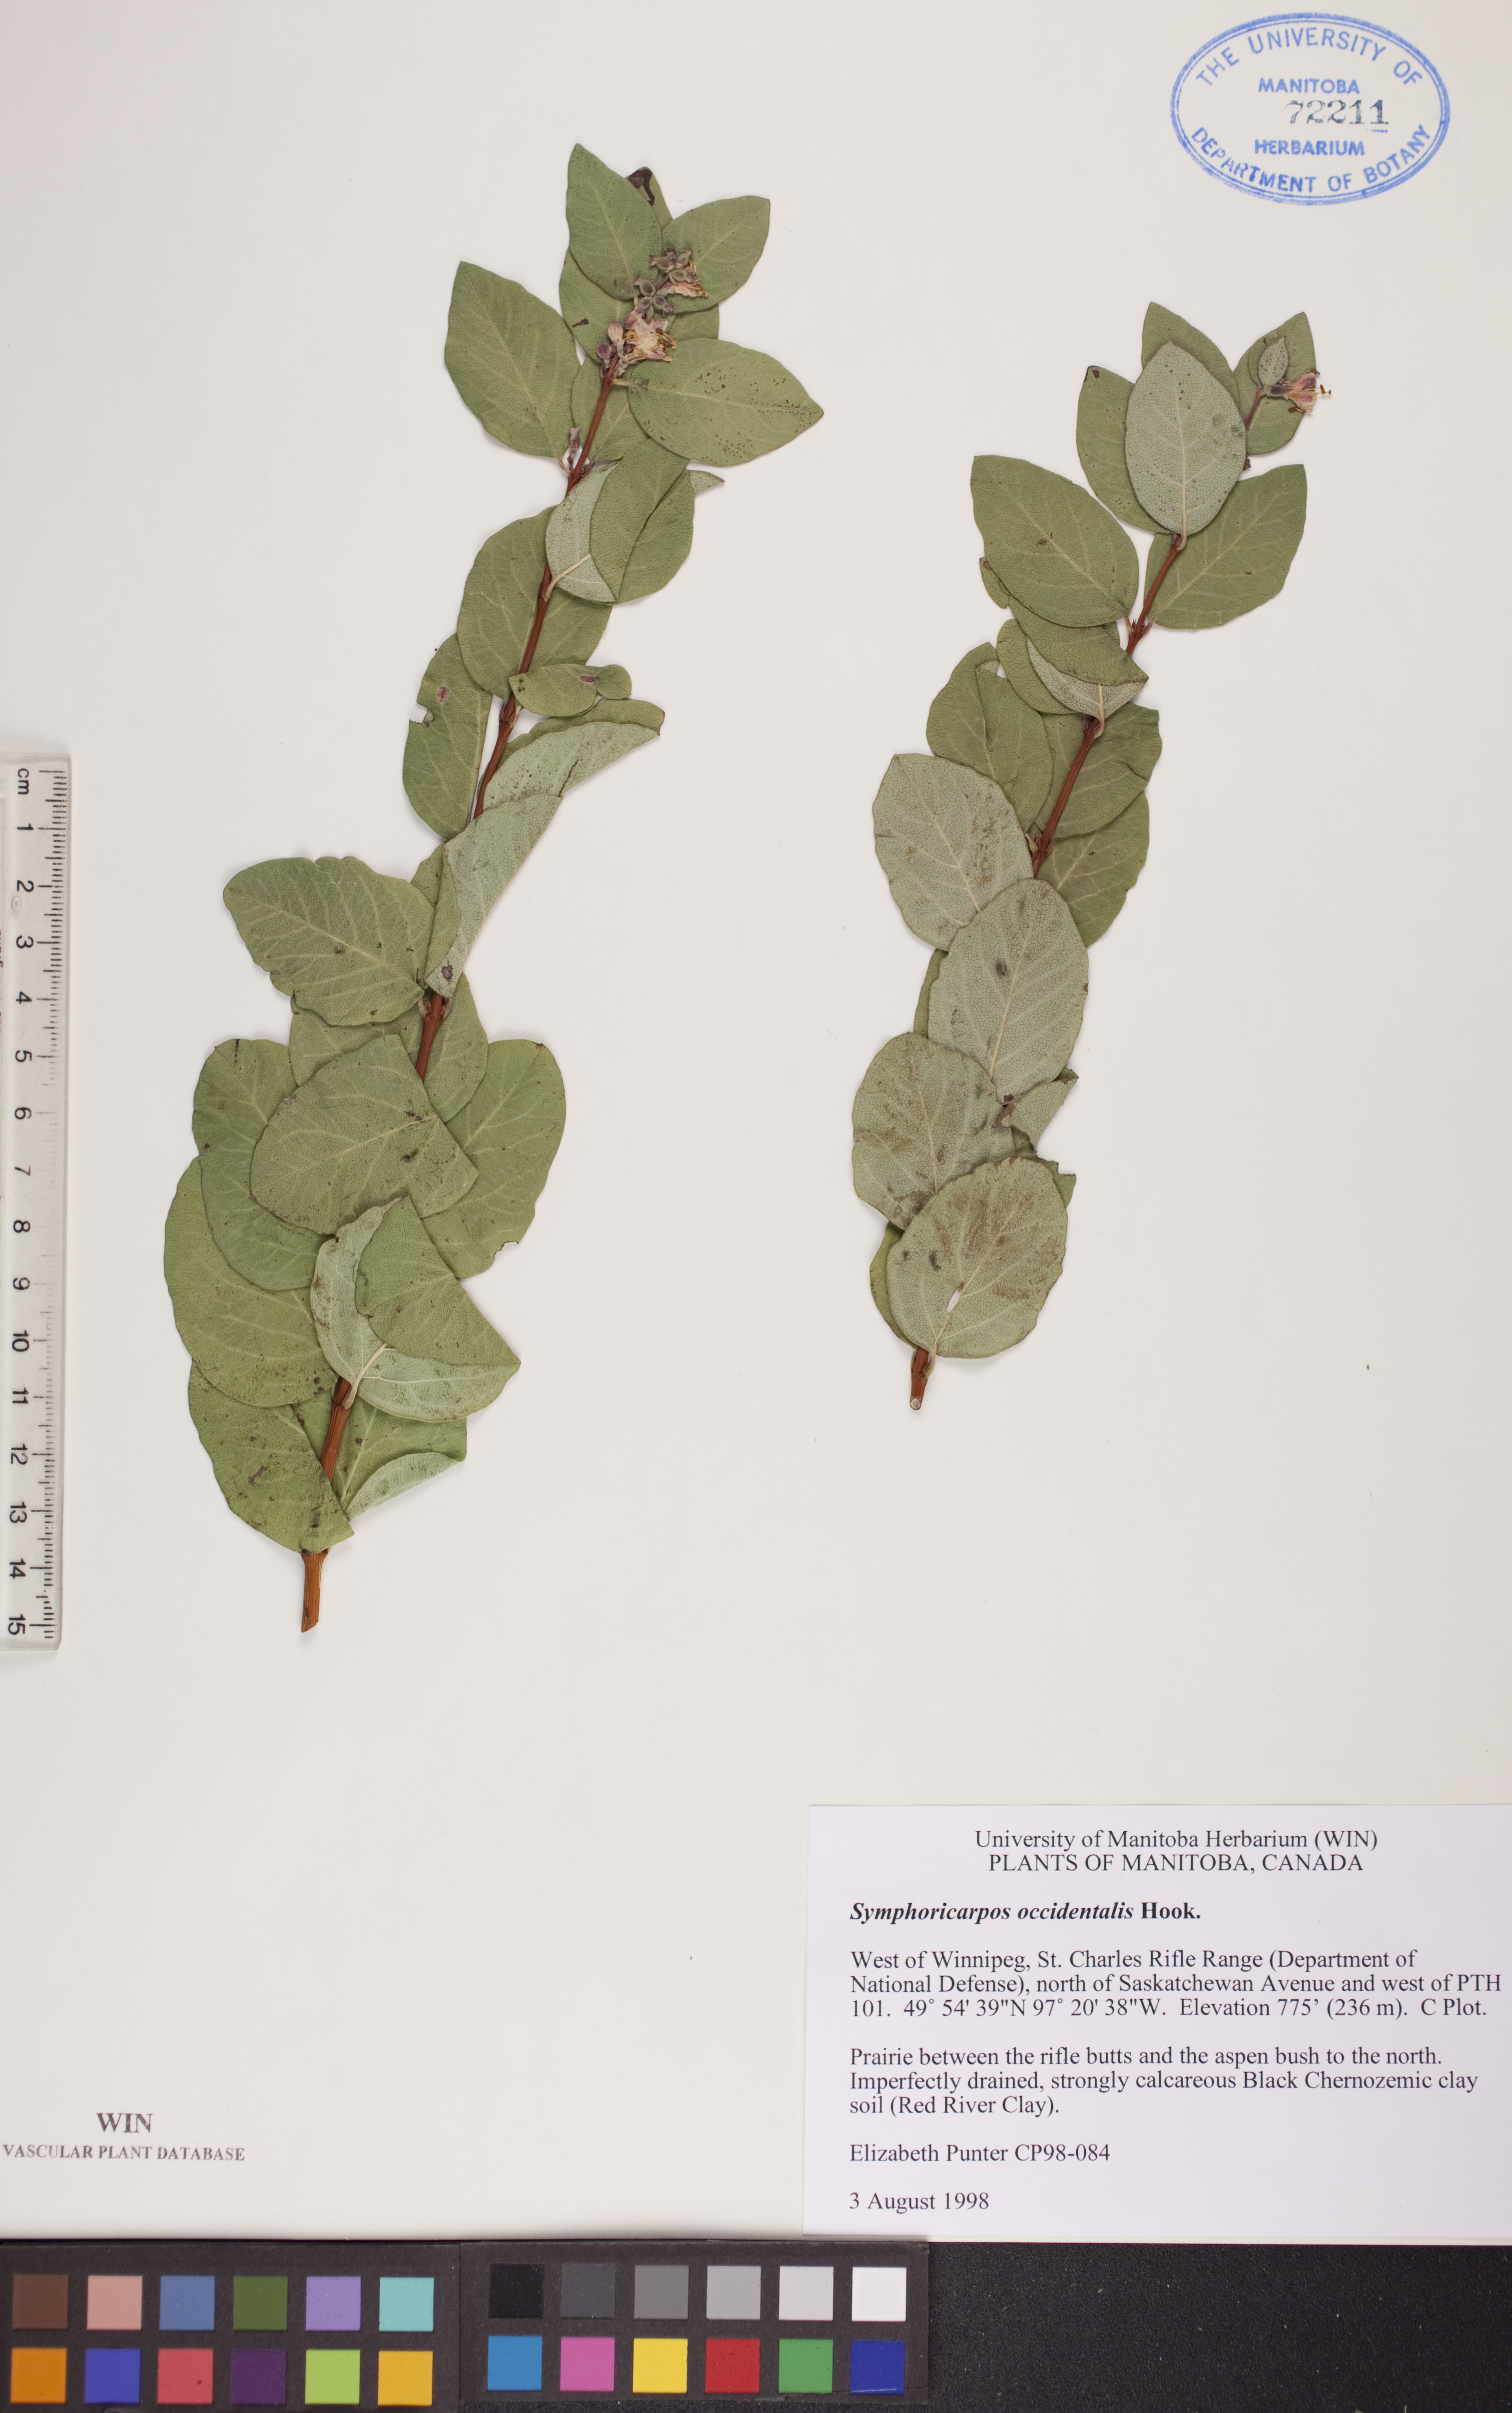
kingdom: Plantae
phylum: Tracheophyta
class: Magnoliopsida
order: Dipsacales
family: Caprifoliaceae
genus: Symphoricarpos
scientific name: Symphoricarpos occidentalis
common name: Wolfberry
